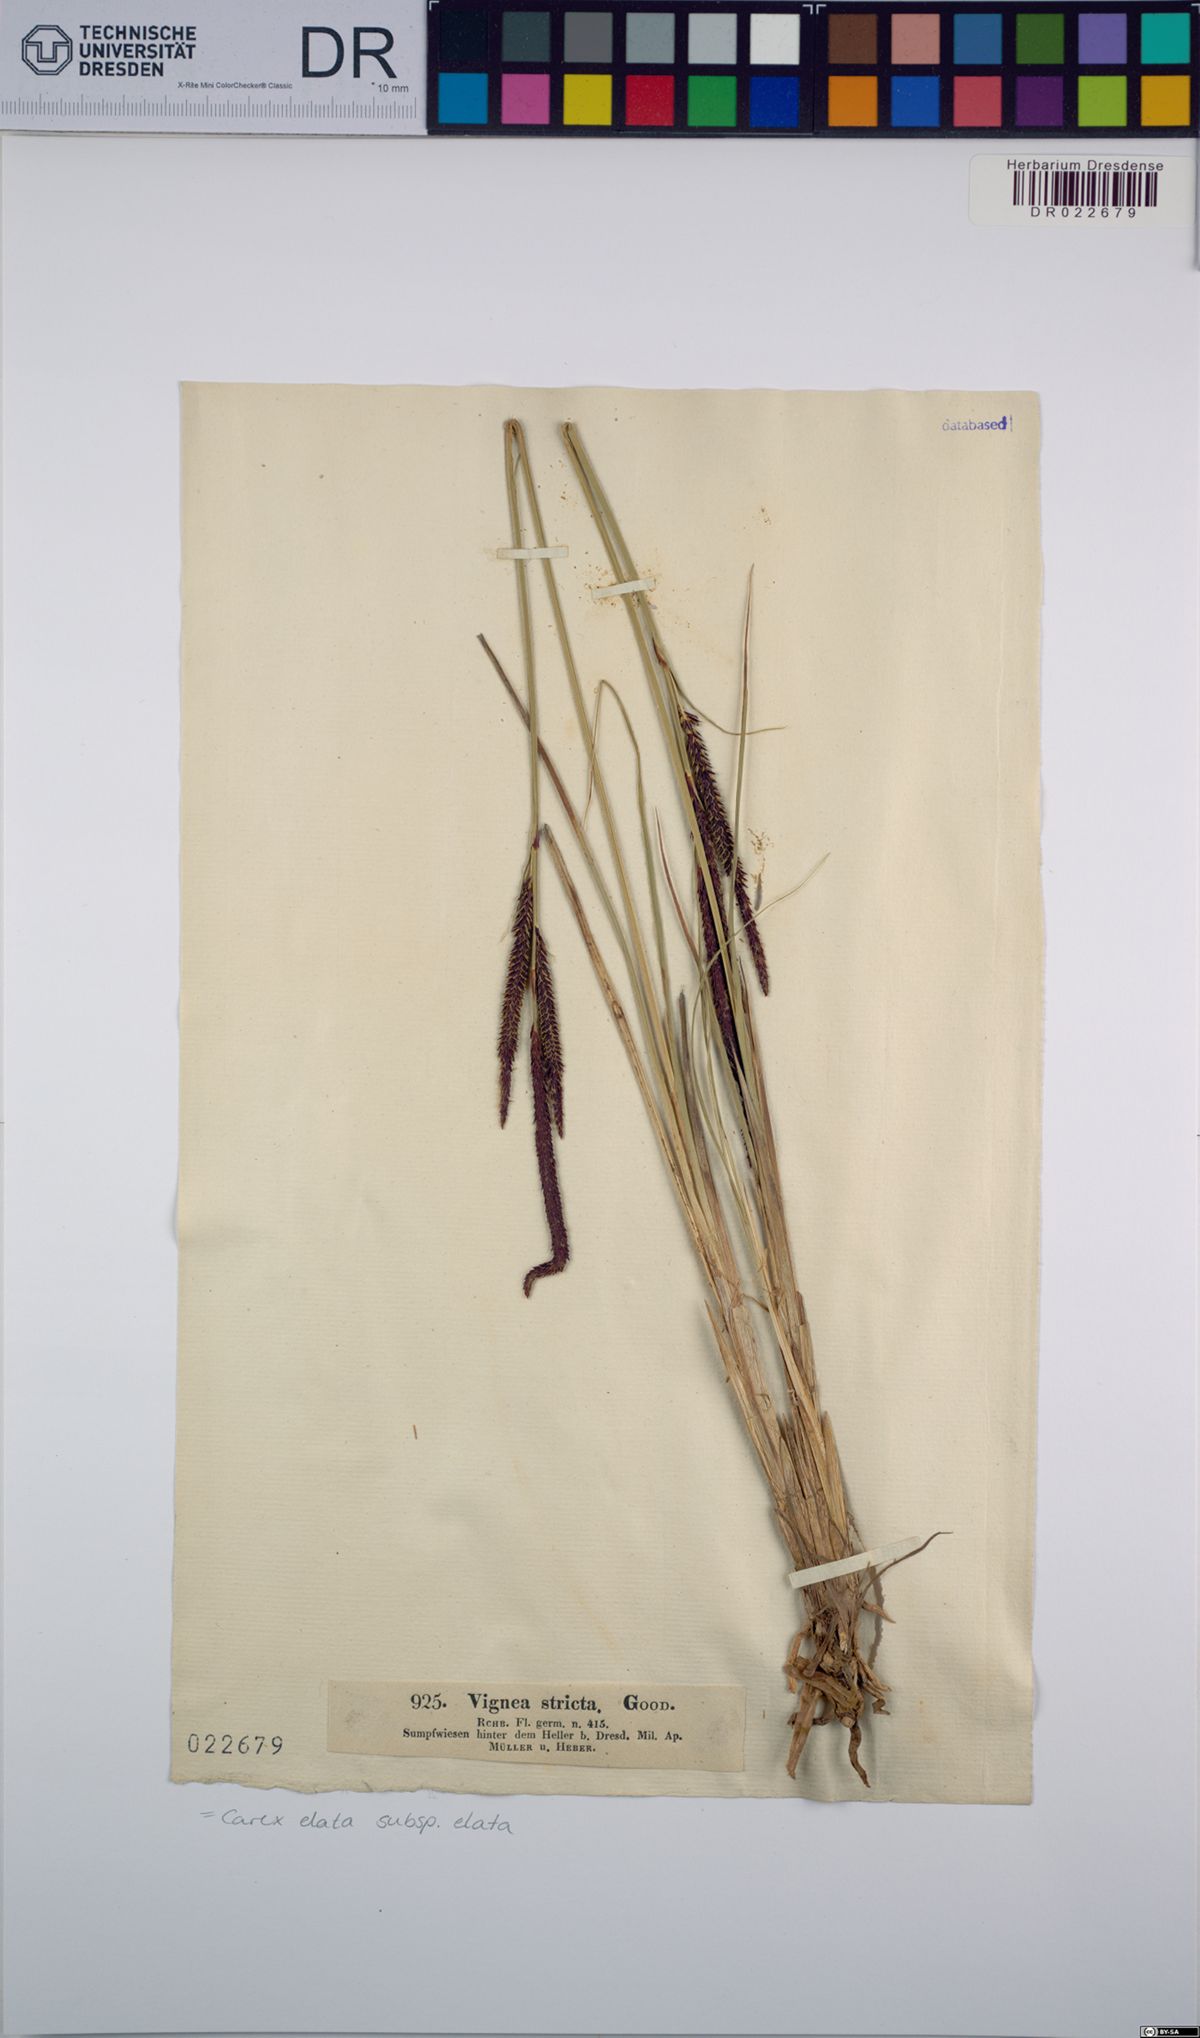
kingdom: Plantae
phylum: Tracheophyta
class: Liliopsida
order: Poales
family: Cyperaceae
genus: Carex
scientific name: Carex elata
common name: Tufted sedge
